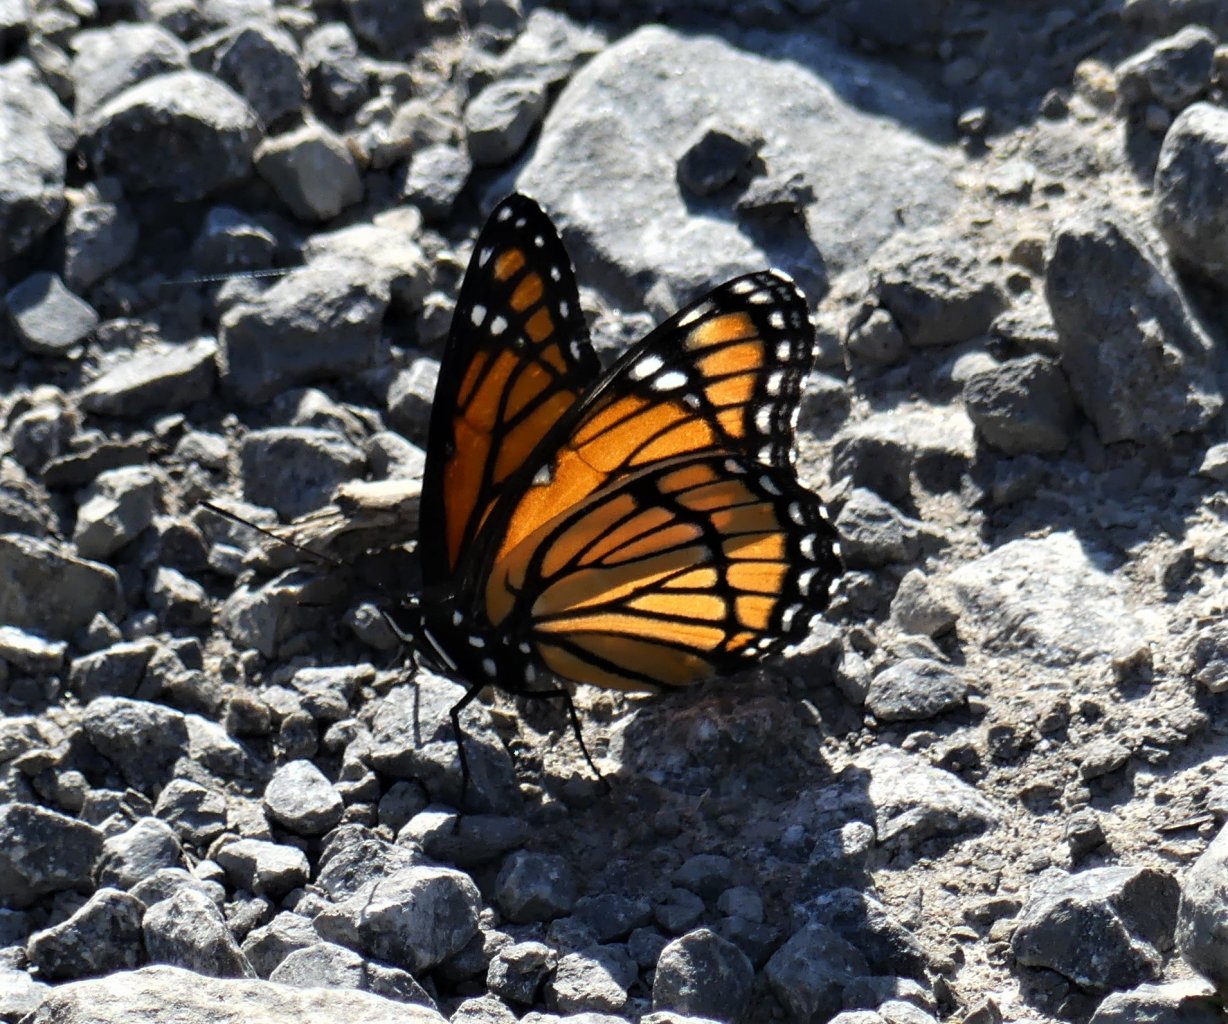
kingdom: Animalia
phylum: Arthropoda
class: Insecta
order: Lepidoptera
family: Nymphalidae
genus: Limenitis
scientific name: Limenitis archippus
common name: Viceroy
